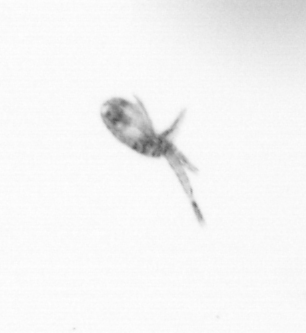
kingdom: Animalia
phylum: Arthropoda
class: Copepoda
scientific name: Copepoda
